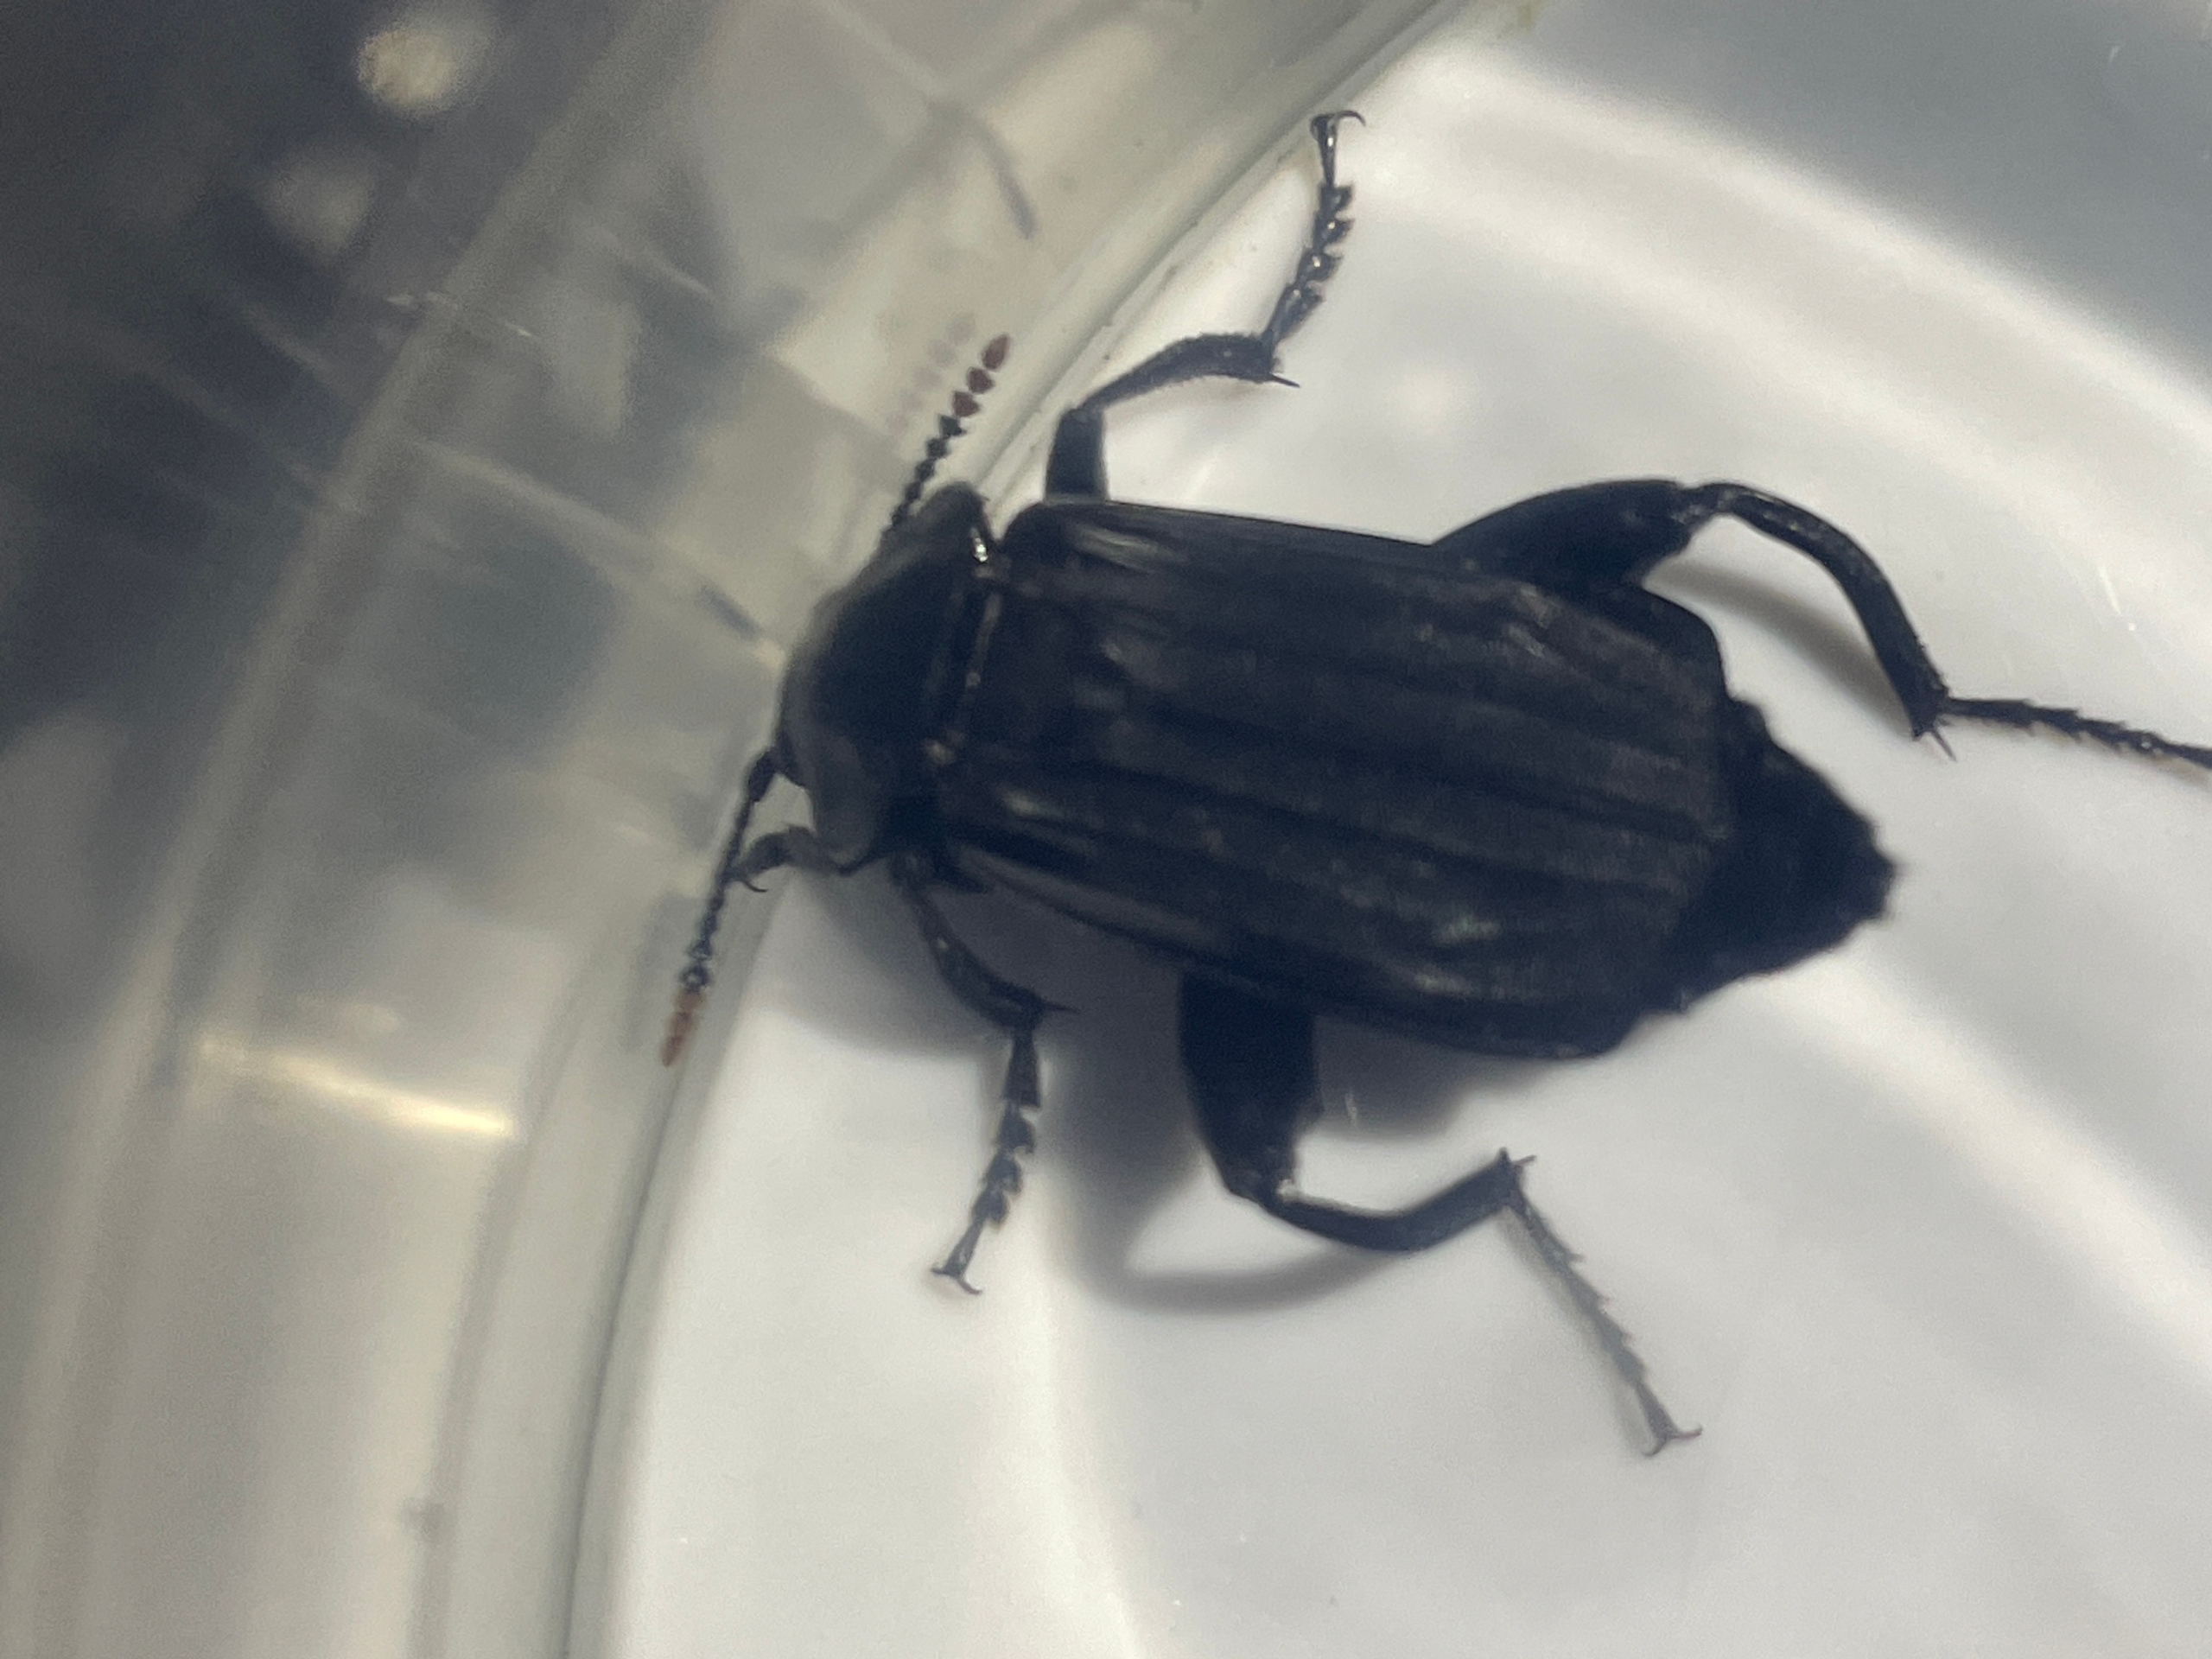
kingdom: Animalia
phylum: Arthropoda
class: Insecta
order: Coleoptera
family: Staphylinidae
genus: Necrodes
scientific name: Necrodes littoralis
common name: Ligrøver
